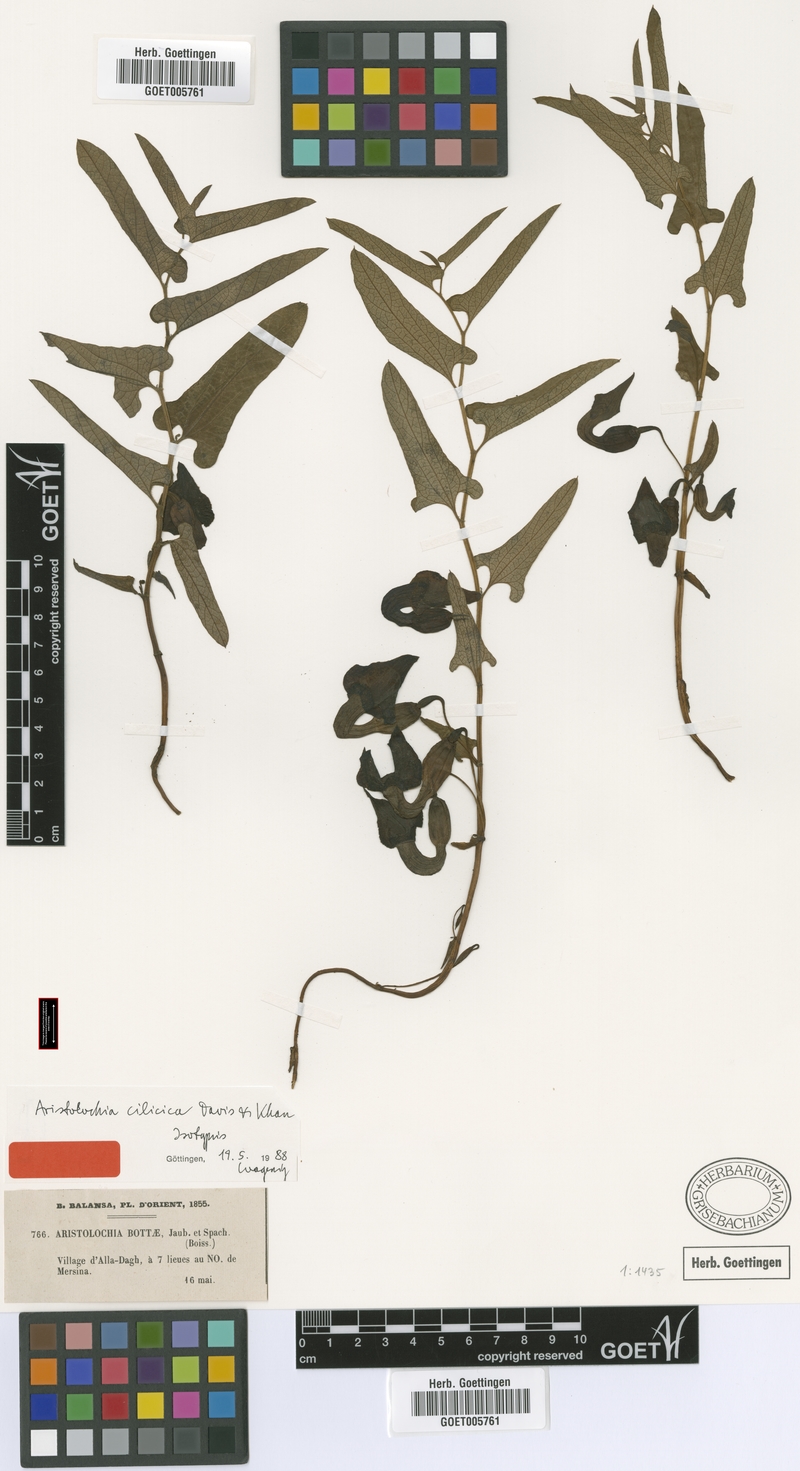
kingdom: Plantae
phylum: Tracheophyta
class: Magnoliopsida
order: Piperales
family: Aristolochiaceae
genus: Aristolochia
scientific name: Aristolochia cilicica
